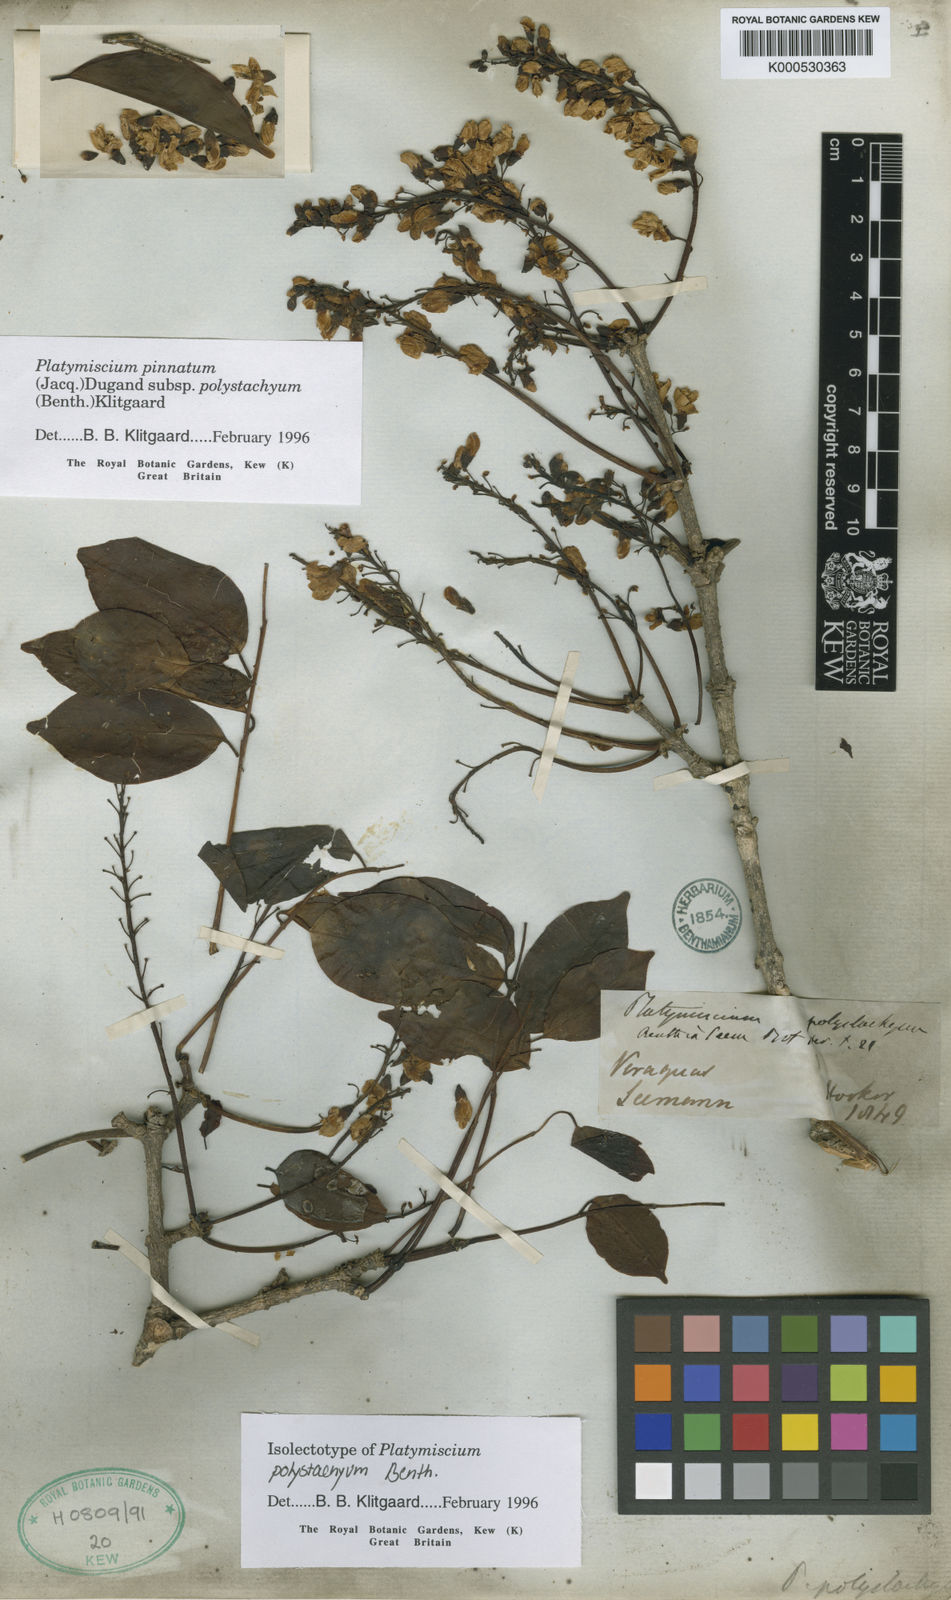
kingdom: Plantae
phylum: Tracheophyta
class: Magnoliopsida
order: Fabales
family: Fabaceae
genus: Platymiscium
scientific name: Platymiscium pinnatum
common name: Panama redwood
